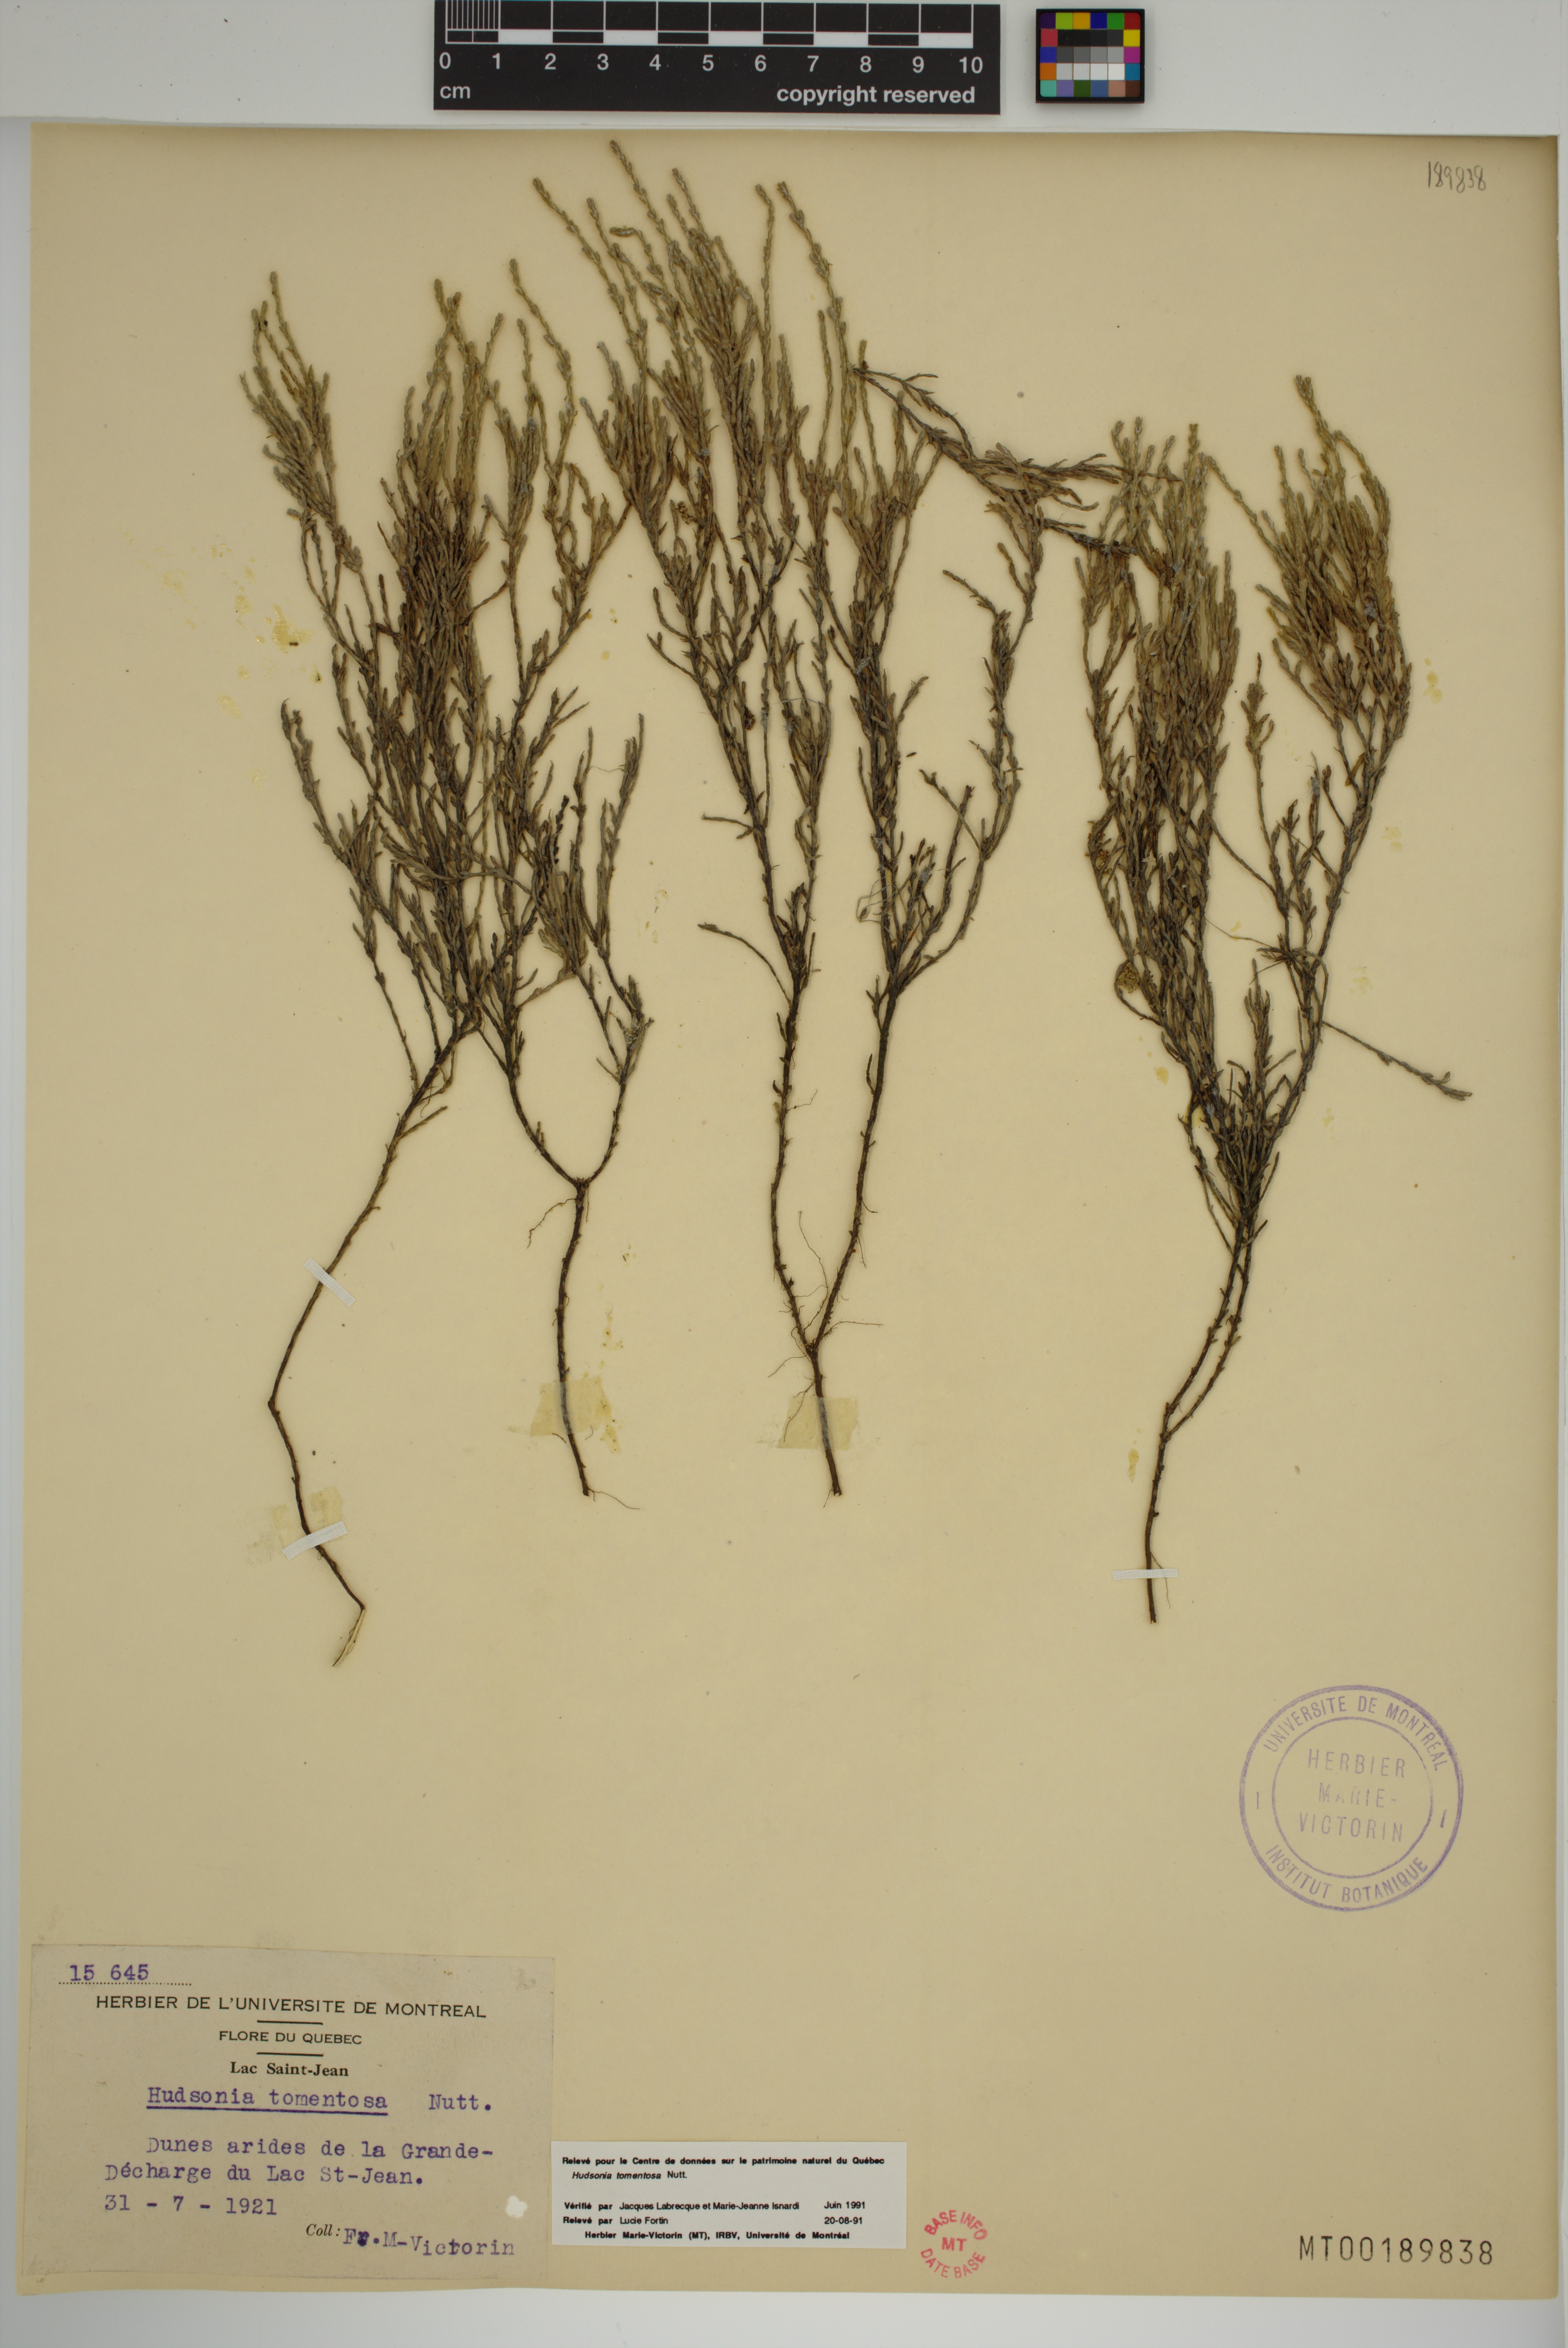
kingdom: Plantae
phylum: Tracheophyta
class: Magnoliopsida
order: Malvales
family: Cistaceae
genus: Hudsonia
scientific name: Hudsonia tomentosa
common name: Beach-heath
